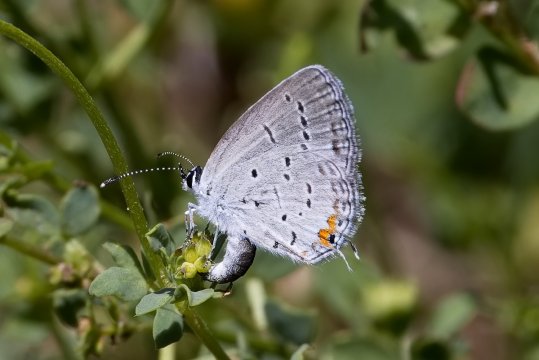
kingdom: Animalia
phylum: Arthropoda
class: Insecta
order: Lepidoptera
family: Lycaenidae
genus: Elkalyce
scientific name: Elkalyce comyntas
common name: Eastern Tailed-Blue
